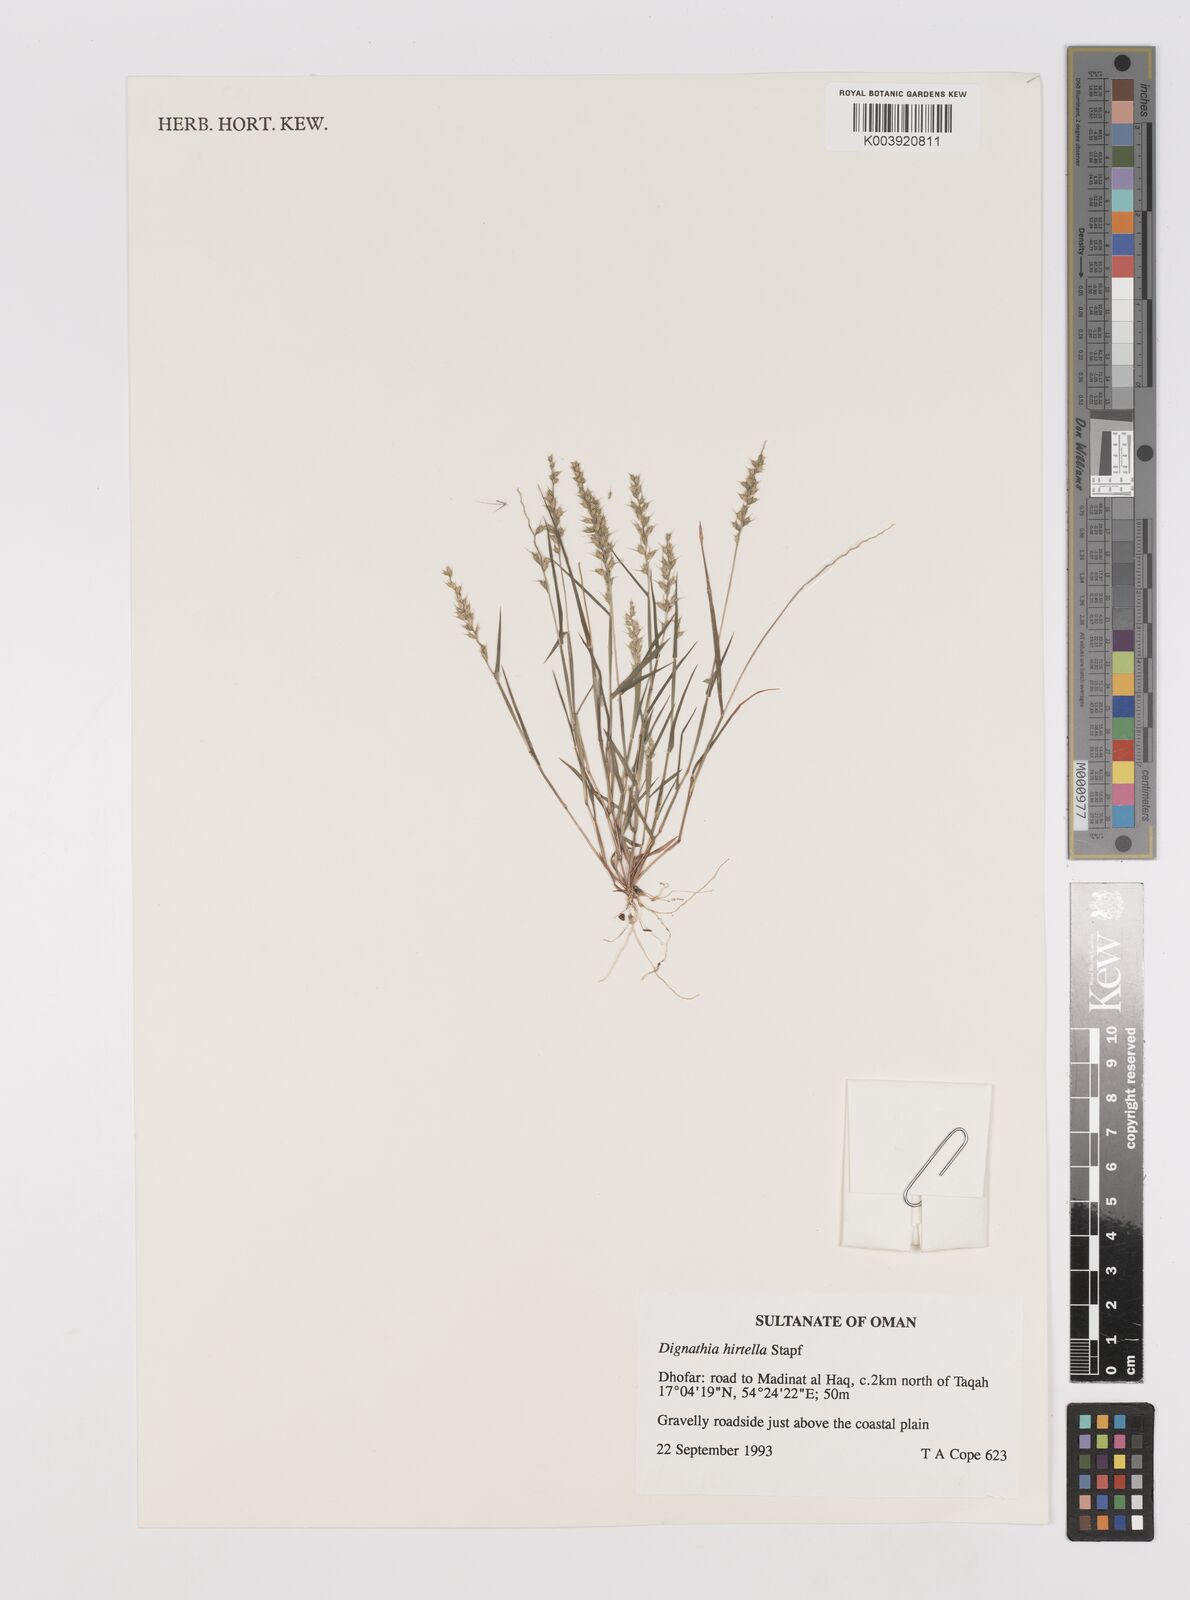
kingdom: Plantae
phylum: Tracheophyta
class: Liliopsida
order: Poales
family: Poaceae
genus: Dignathia
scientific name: Dignathia hirtella
